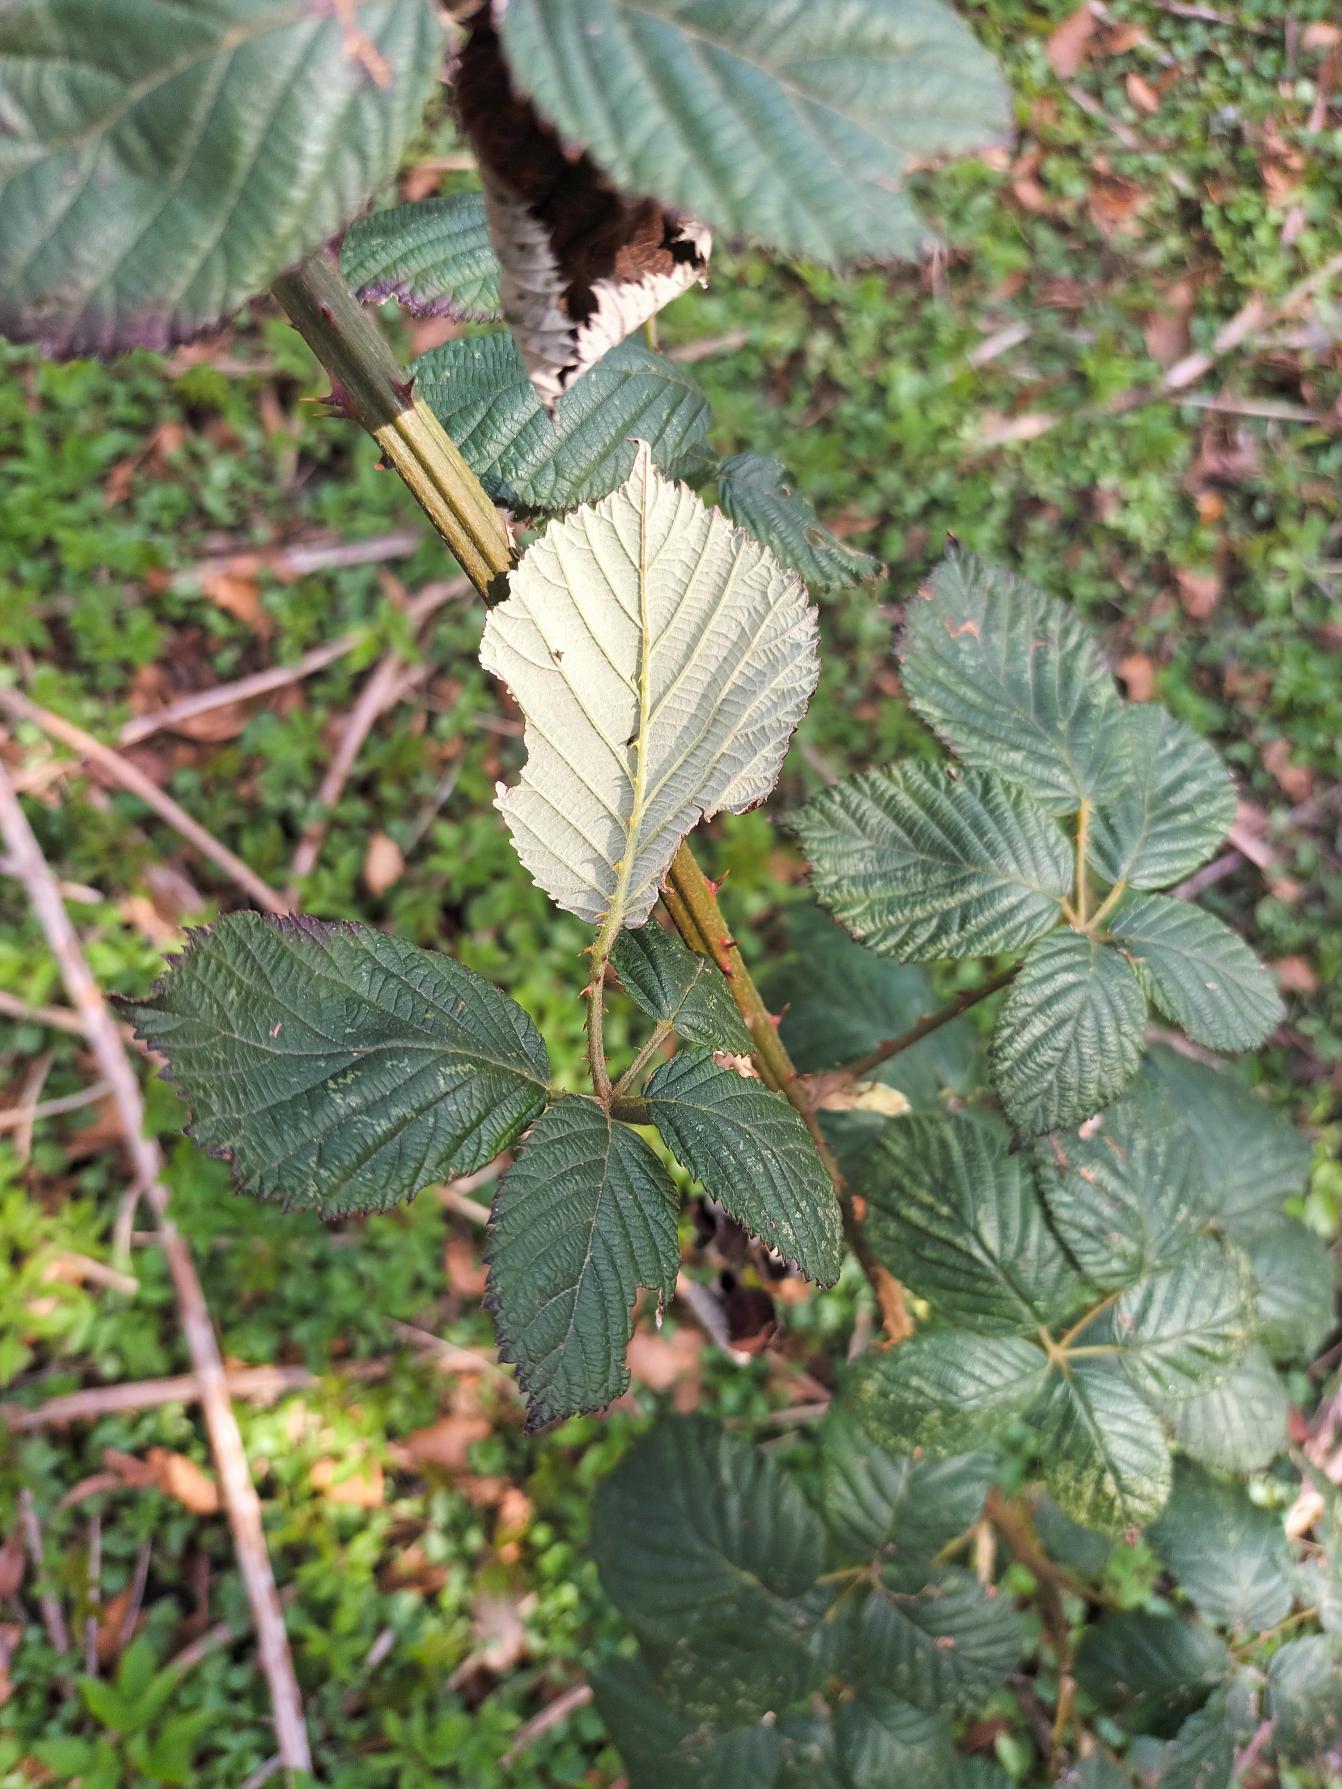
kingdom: Plantae
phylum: Tracheophyta
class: Magnoliopsida
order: Rosales
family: Rosaceae
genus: Rubus
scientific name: Rubus armeniacus
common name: Armensk brombær
